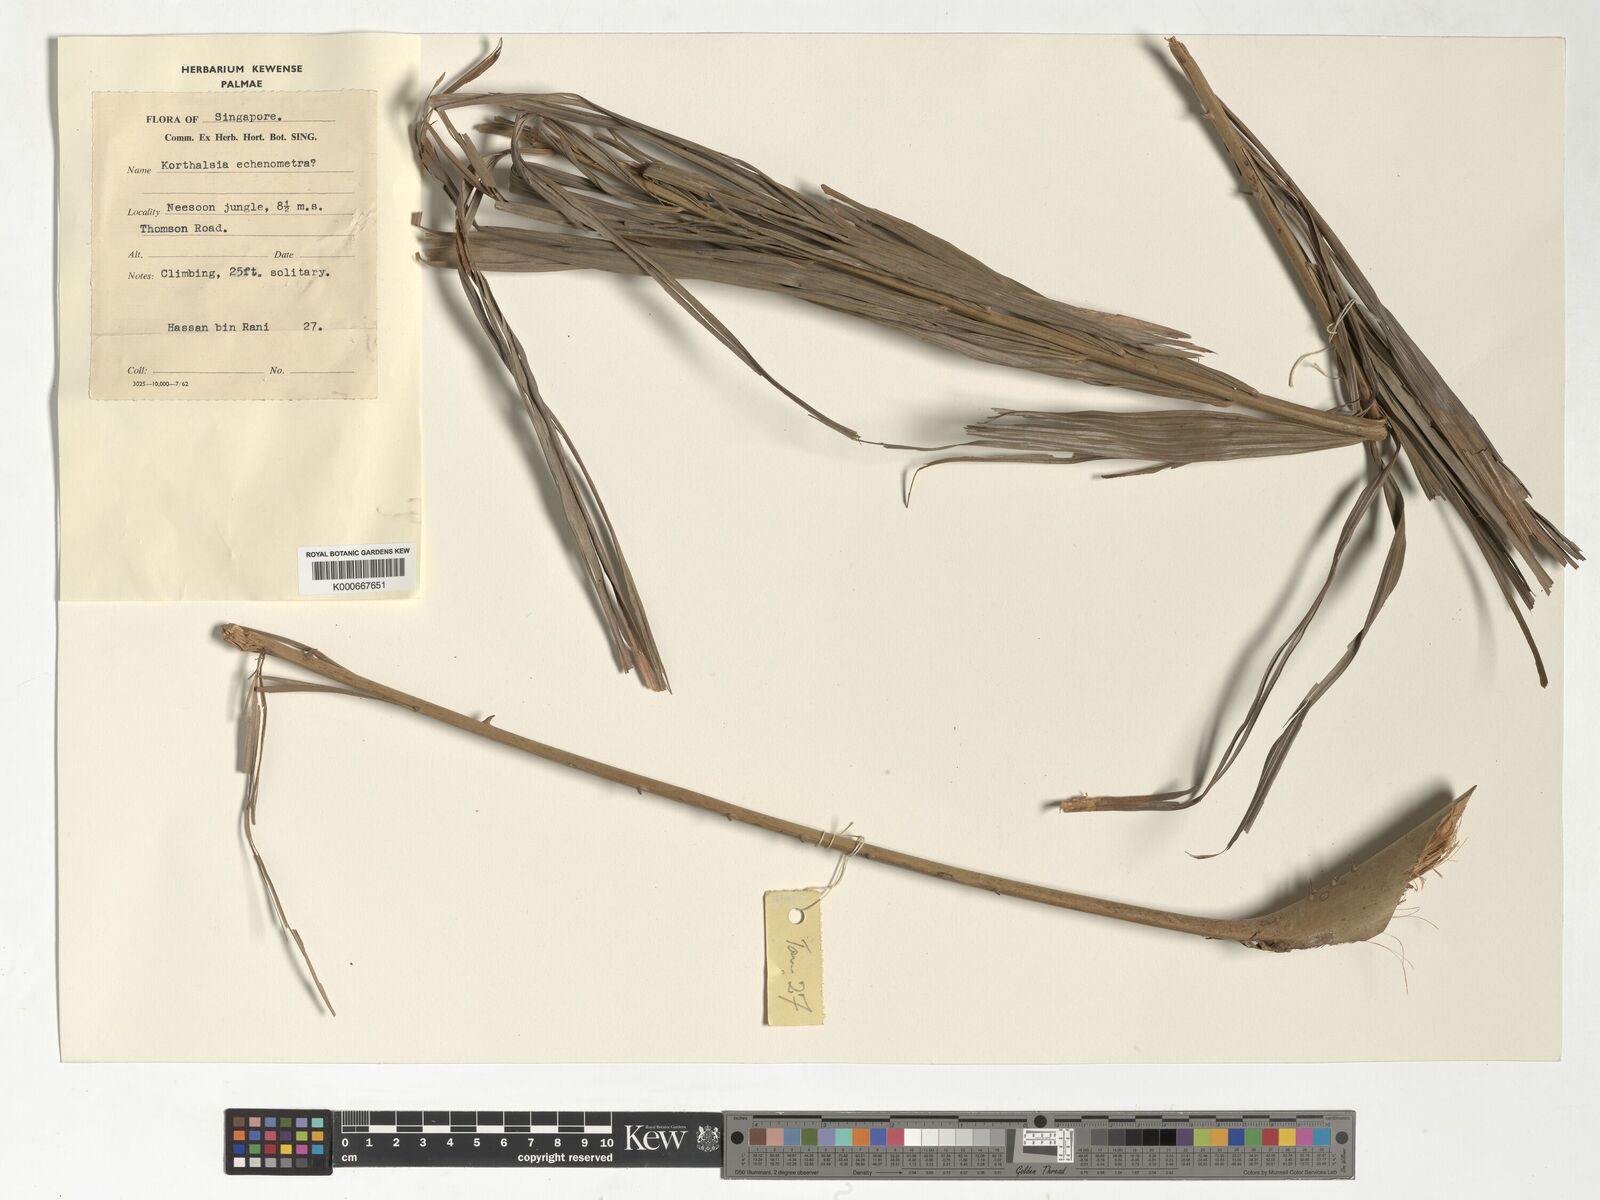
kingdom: Plantae
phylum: Tracheophyta
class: Liliopsida
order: Arecales
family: Arecaceae
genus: Korthalsia
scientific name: Korthalsia echinometra
